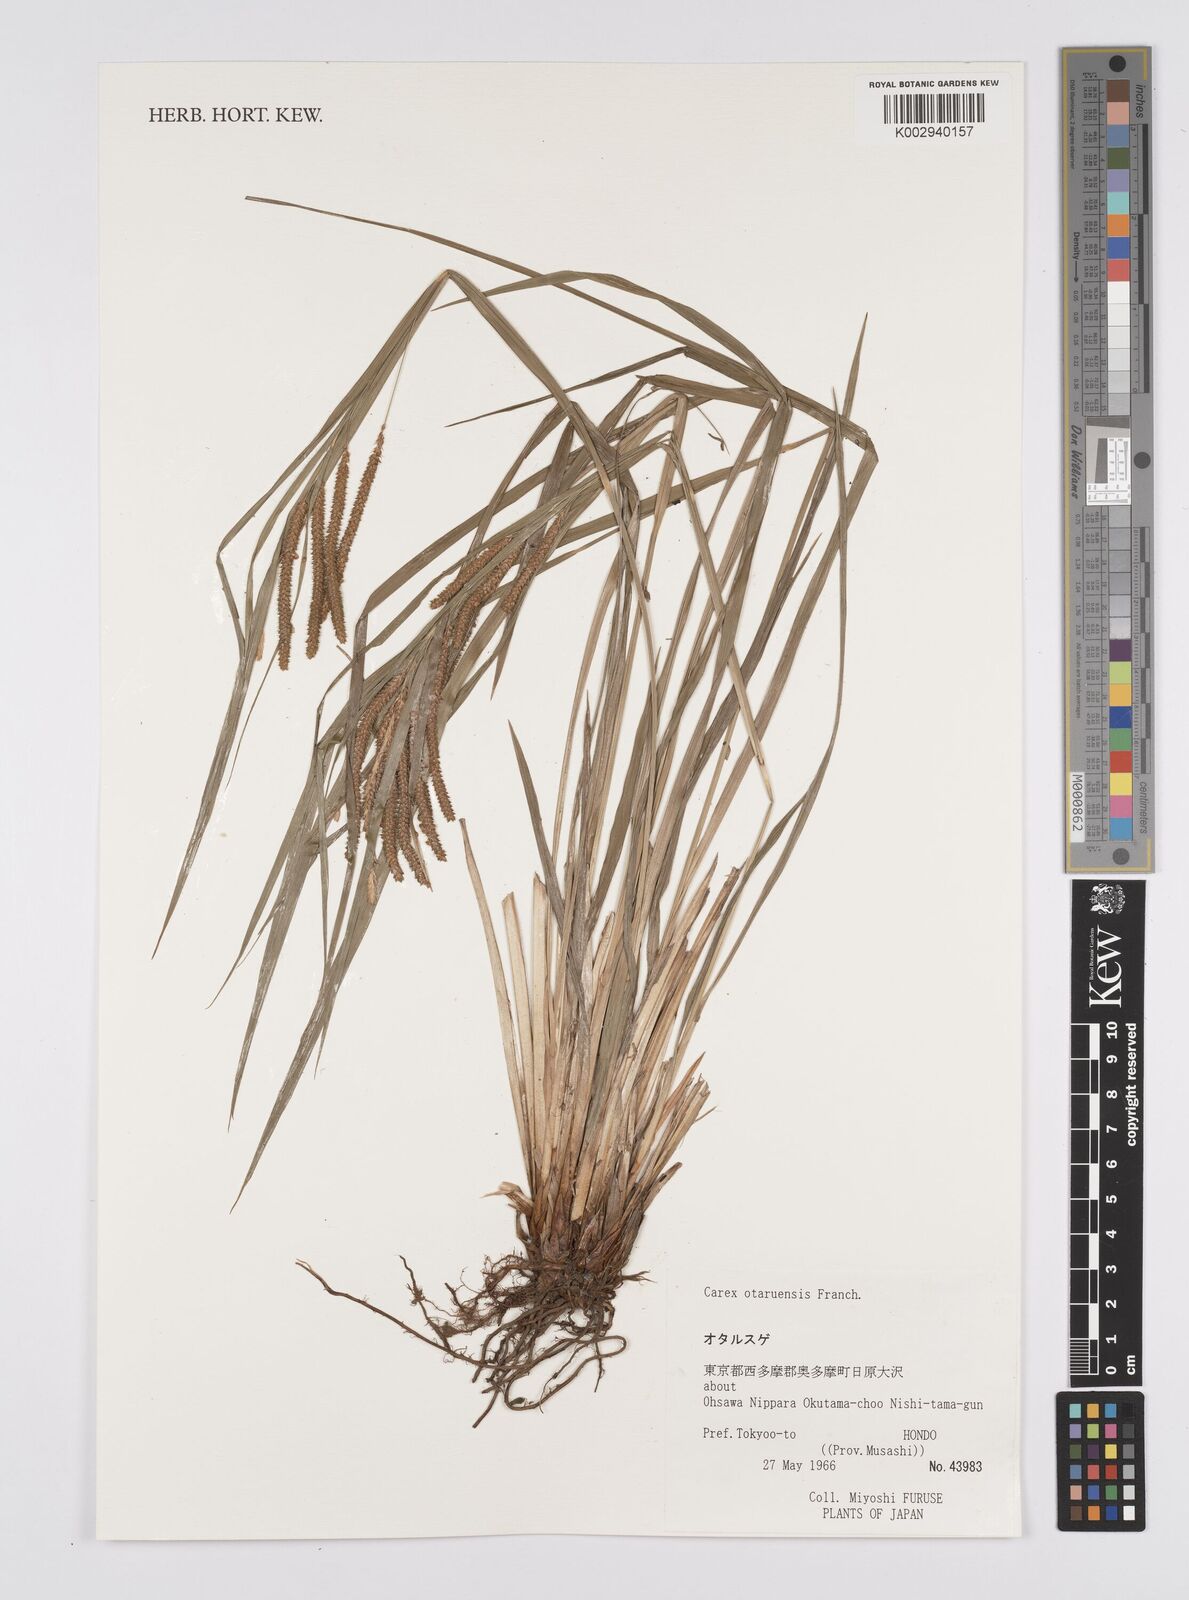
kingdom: Plantae
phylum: Tracheophyta
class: Liliopsida
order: Poales
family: Cyperaceae
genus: Carex
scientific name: Carex otaruensis
